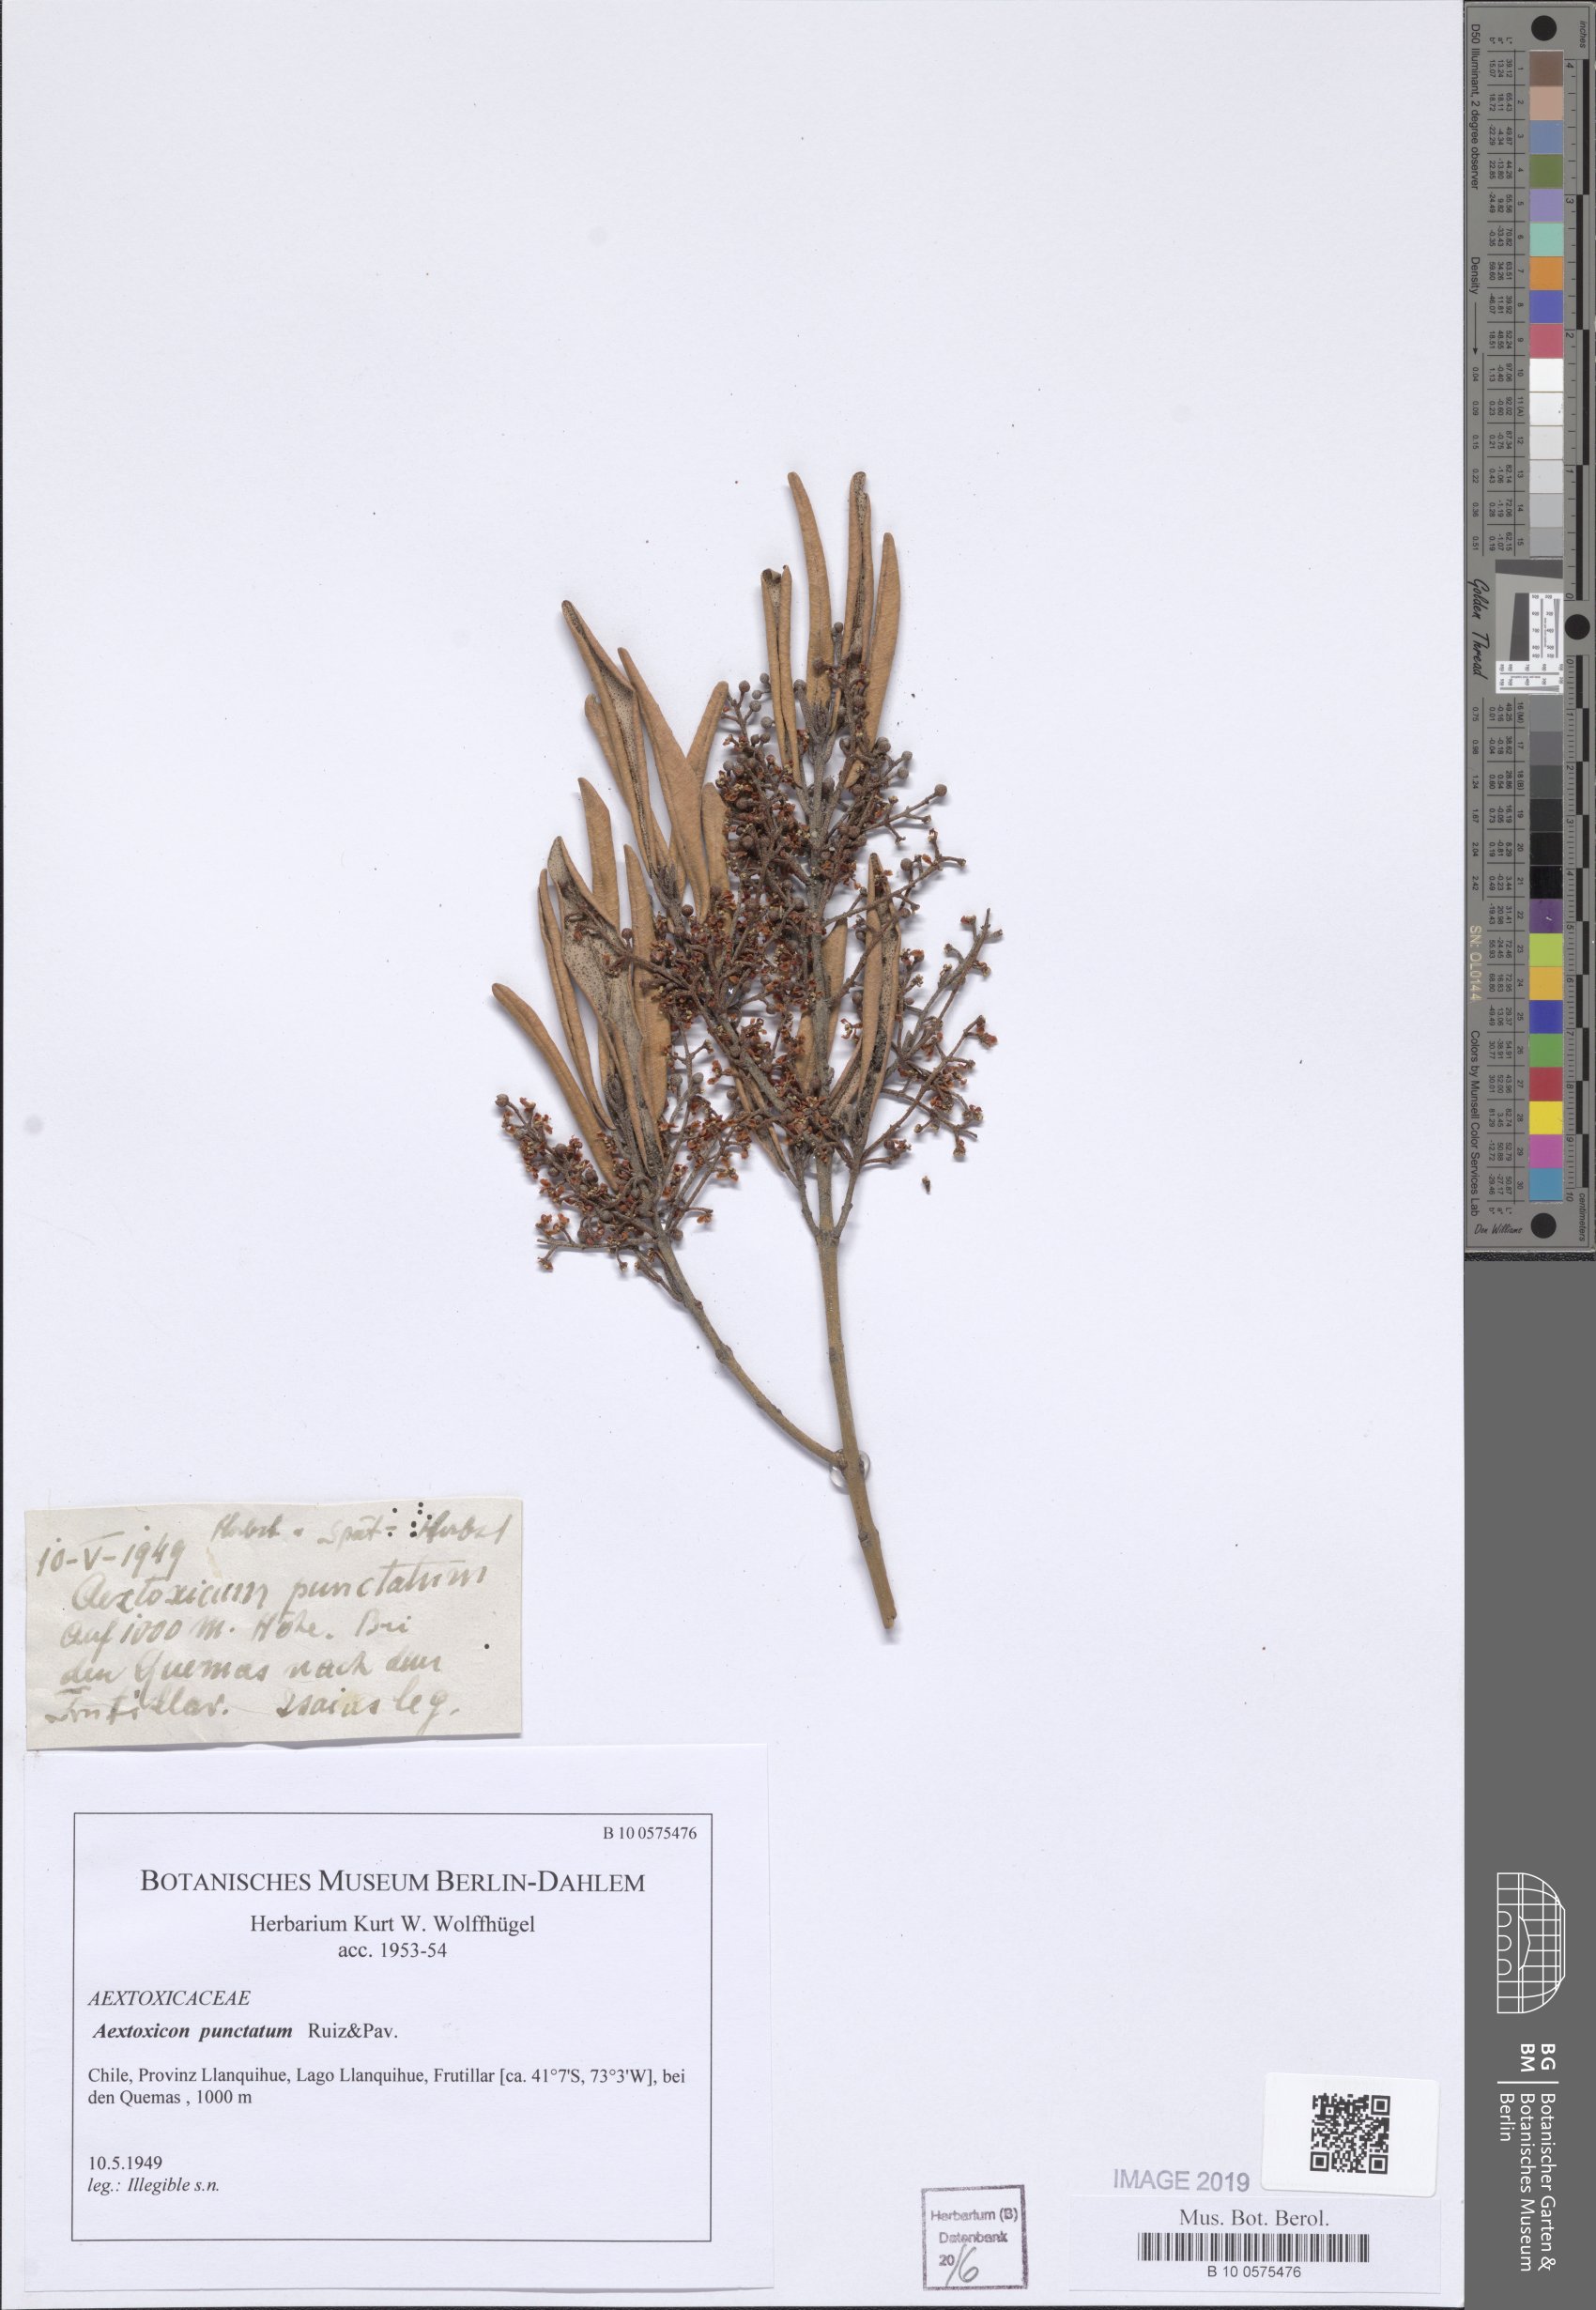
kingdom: Plantae
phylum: Tracheophyta
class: Magnoliopsida
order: Berberidopsidales
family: Aextoxicaceae
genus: Aextoxicon
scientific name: Aextoxicon punctatum
